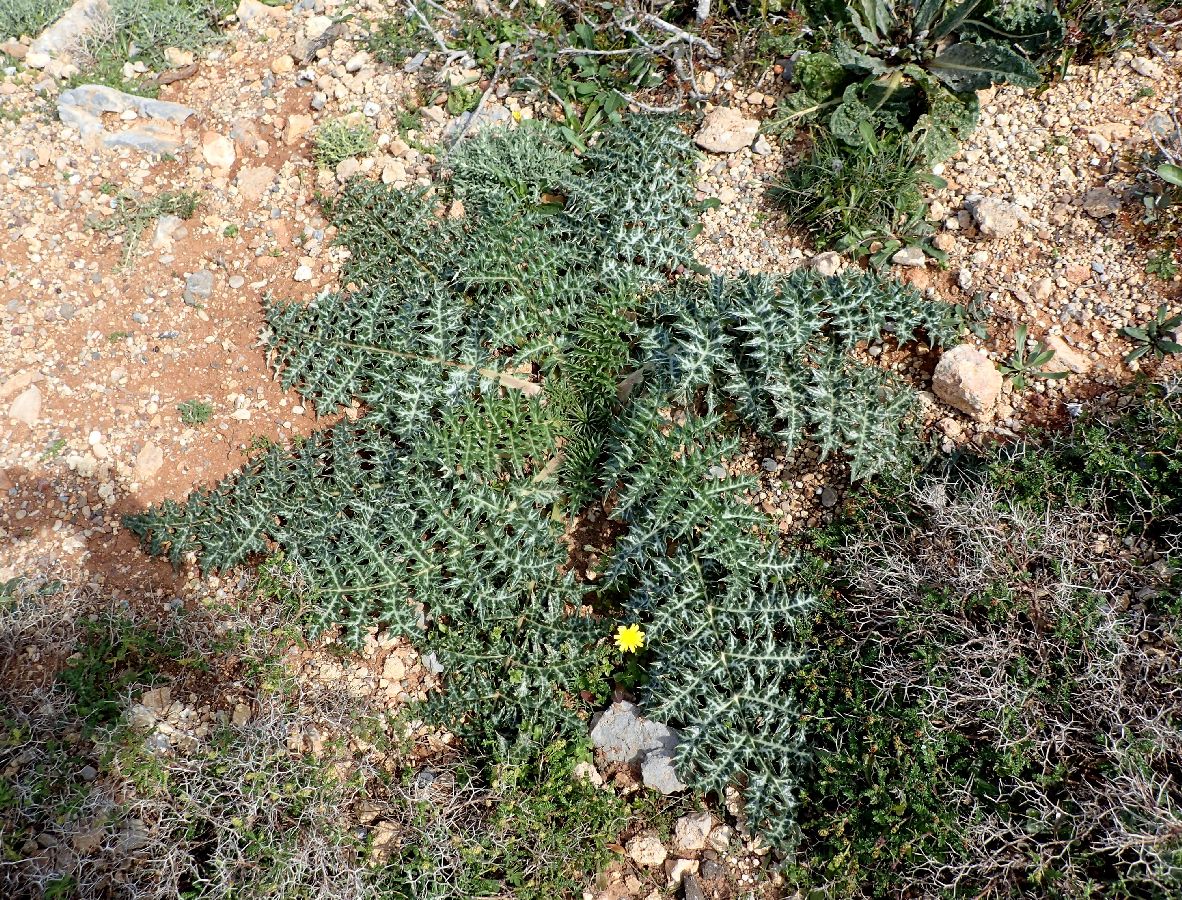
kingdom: Plantae
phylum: Tracheophyta
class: Magnoliopsida
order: Asterales
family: Asteraceae
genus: Cynara
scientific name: Cynara cornigera
